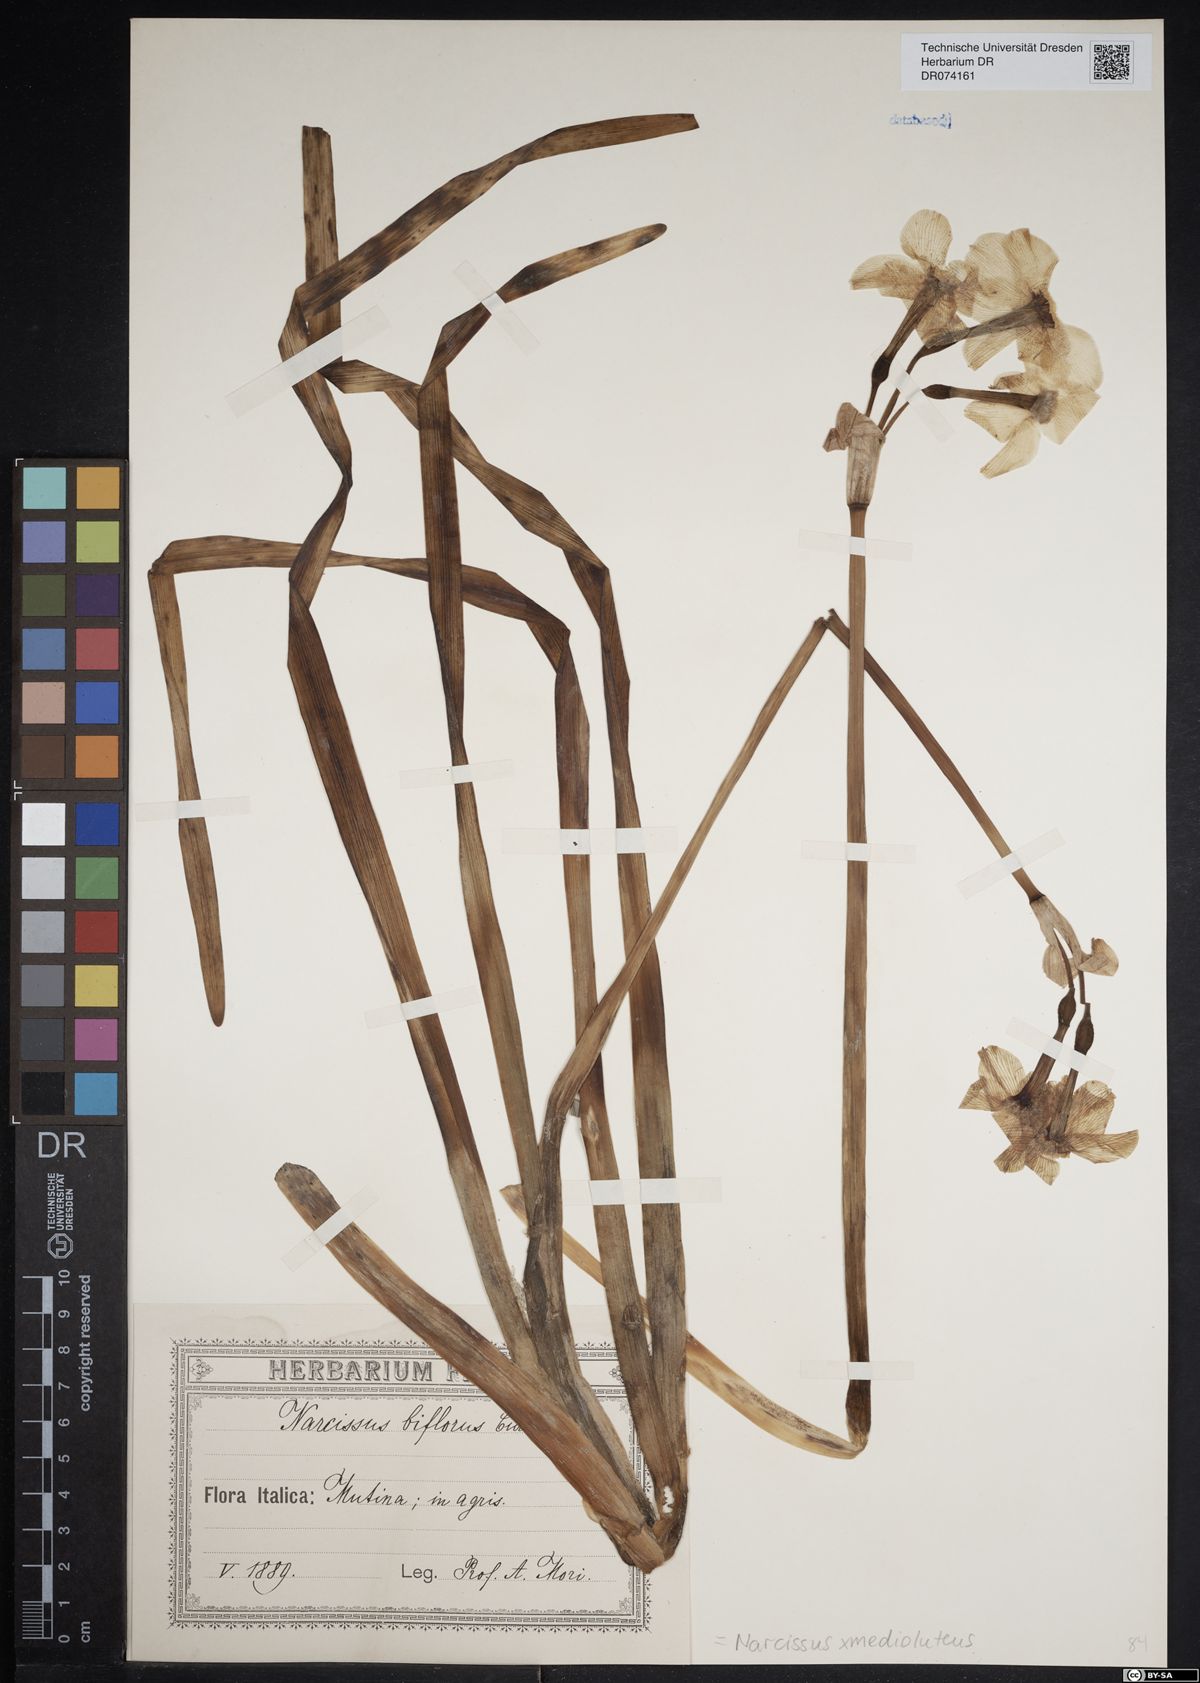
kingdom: Plantae
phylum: Tracheophyta
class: Liliopsida
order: Asparagales
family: Amaryllidaceae
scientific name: Amaryllidaceae
